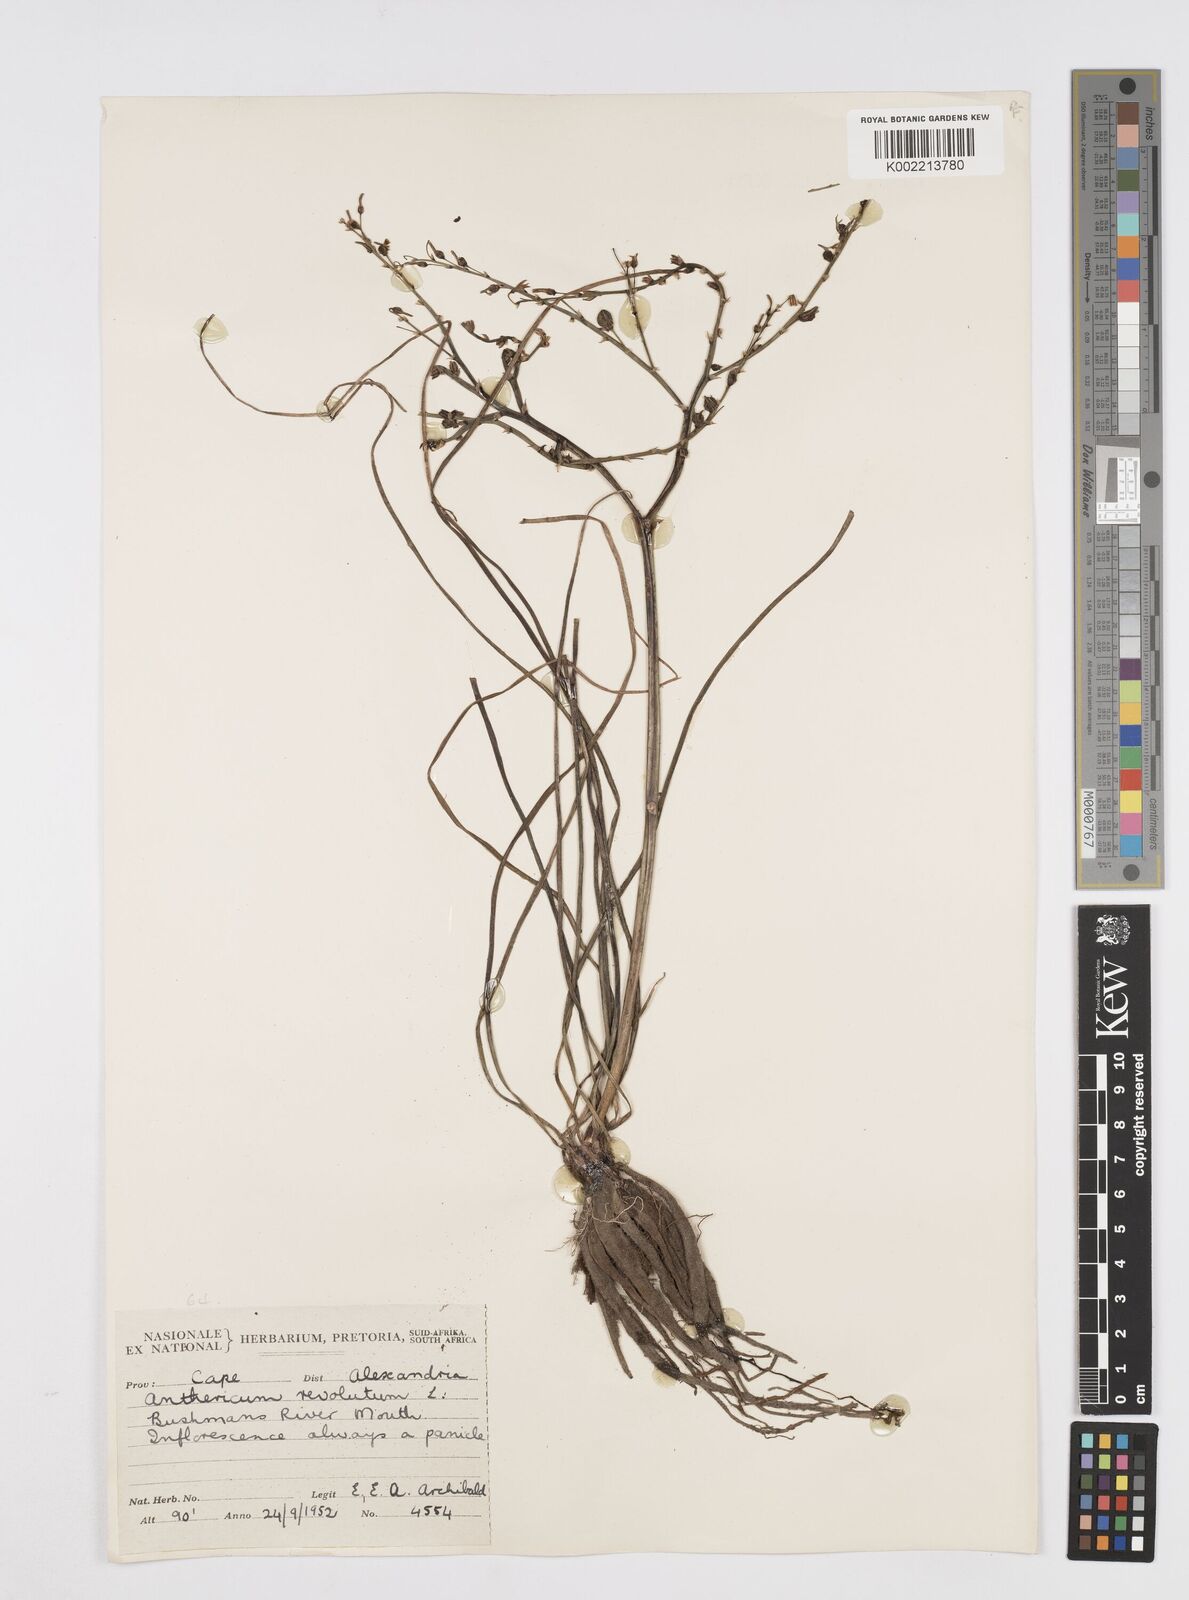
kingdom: Plantae
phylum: Tracheophyta
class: Liliopsida
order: Asparagales
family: Asphodelaceae
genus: Trachyandra
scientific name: Trachyandra revoluta
